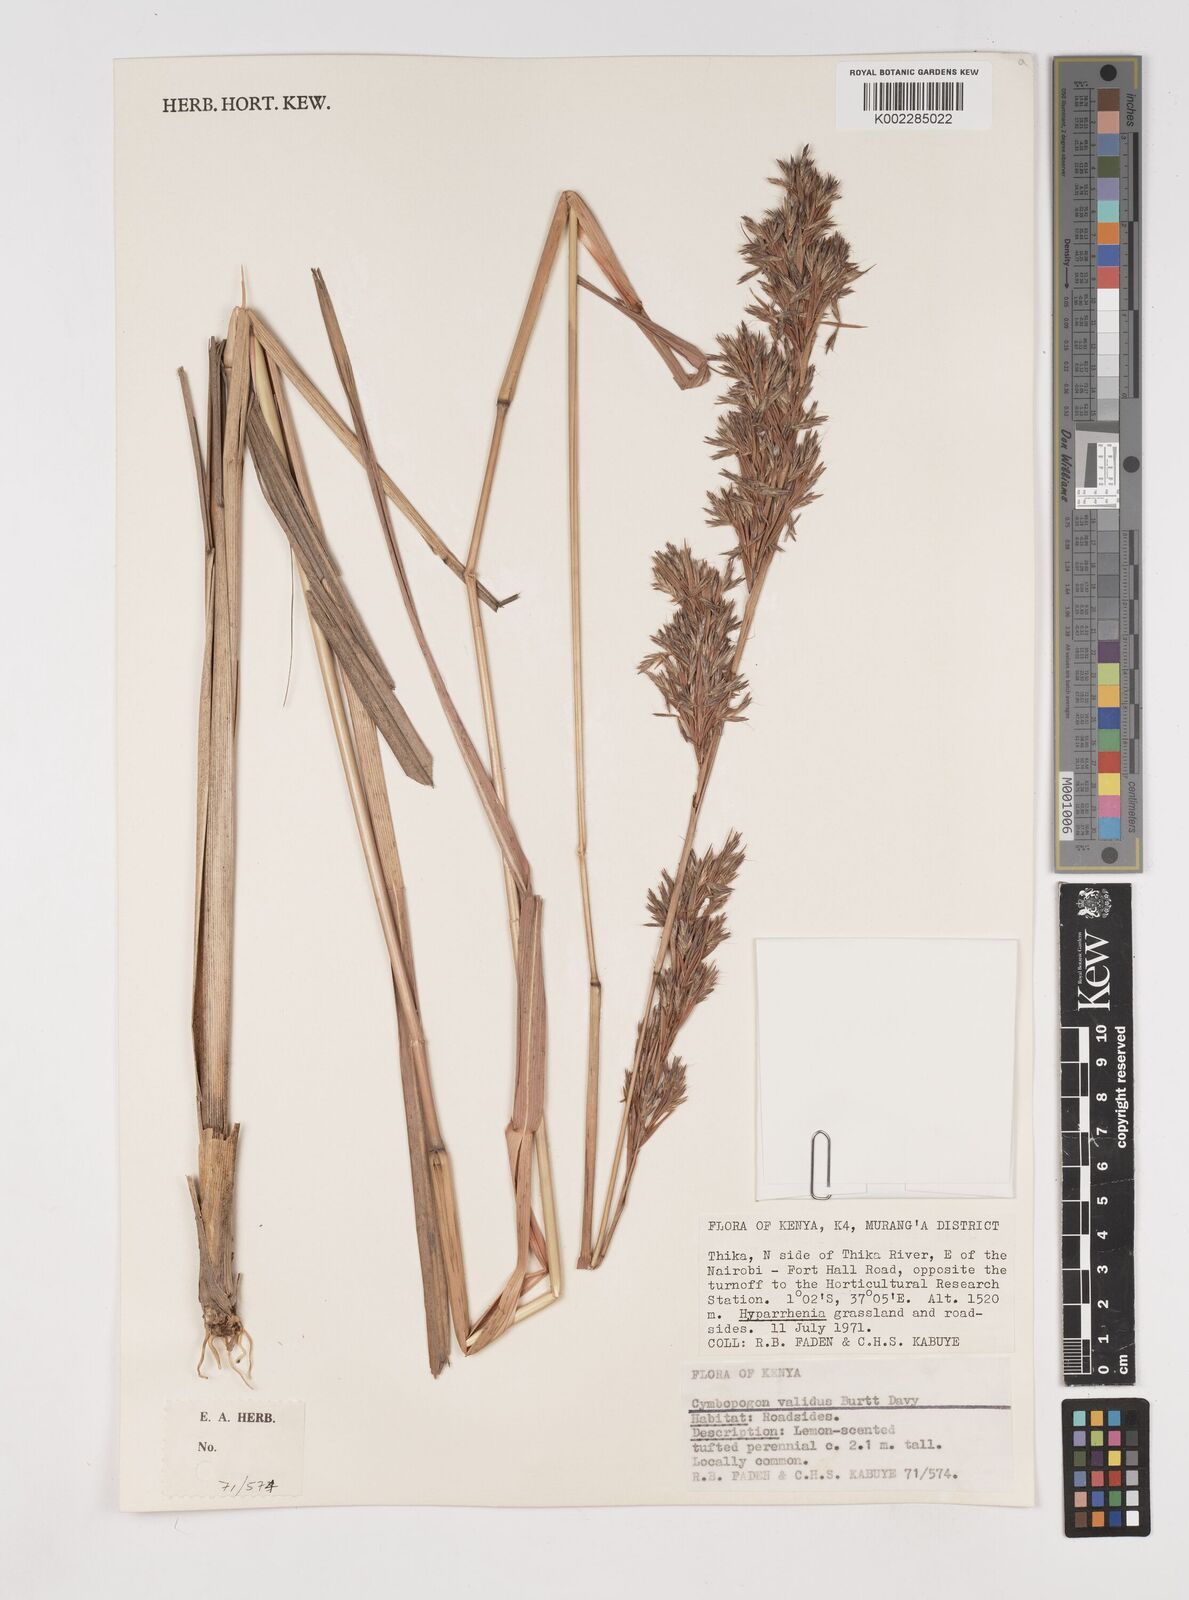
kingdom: Plantae
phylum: Tracheophyta
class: Liliopsida
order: Poales
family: Poaceae
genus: Cymbopogon
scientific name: Cymbopogon nardus
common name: Giant turpentine grass
